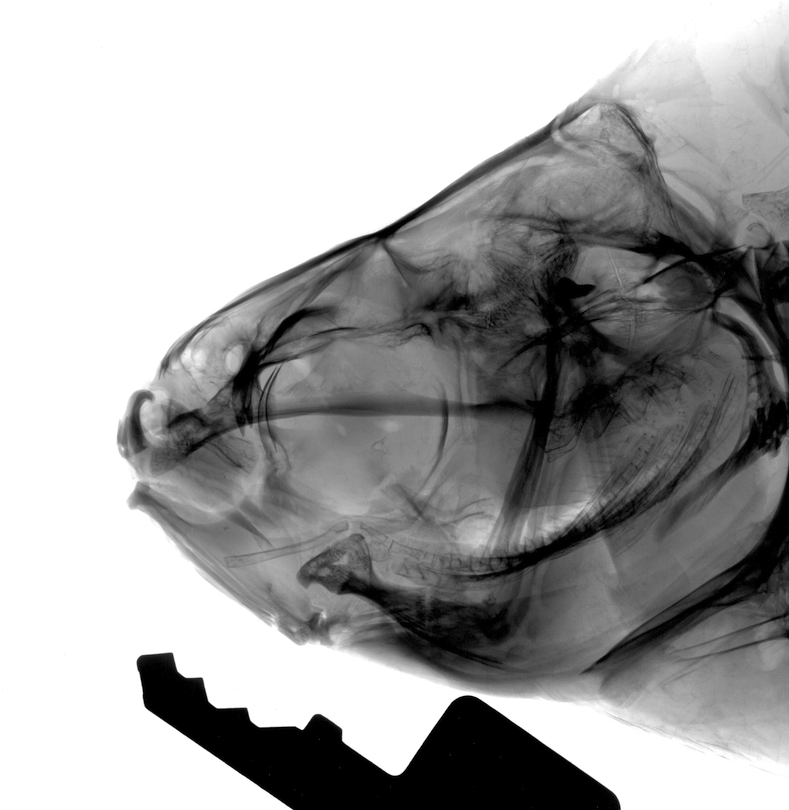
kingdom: Animalia
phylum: Chordata
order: Cypriniformes
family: Cyprinidae
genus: Abramis
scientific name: Abramis brama
